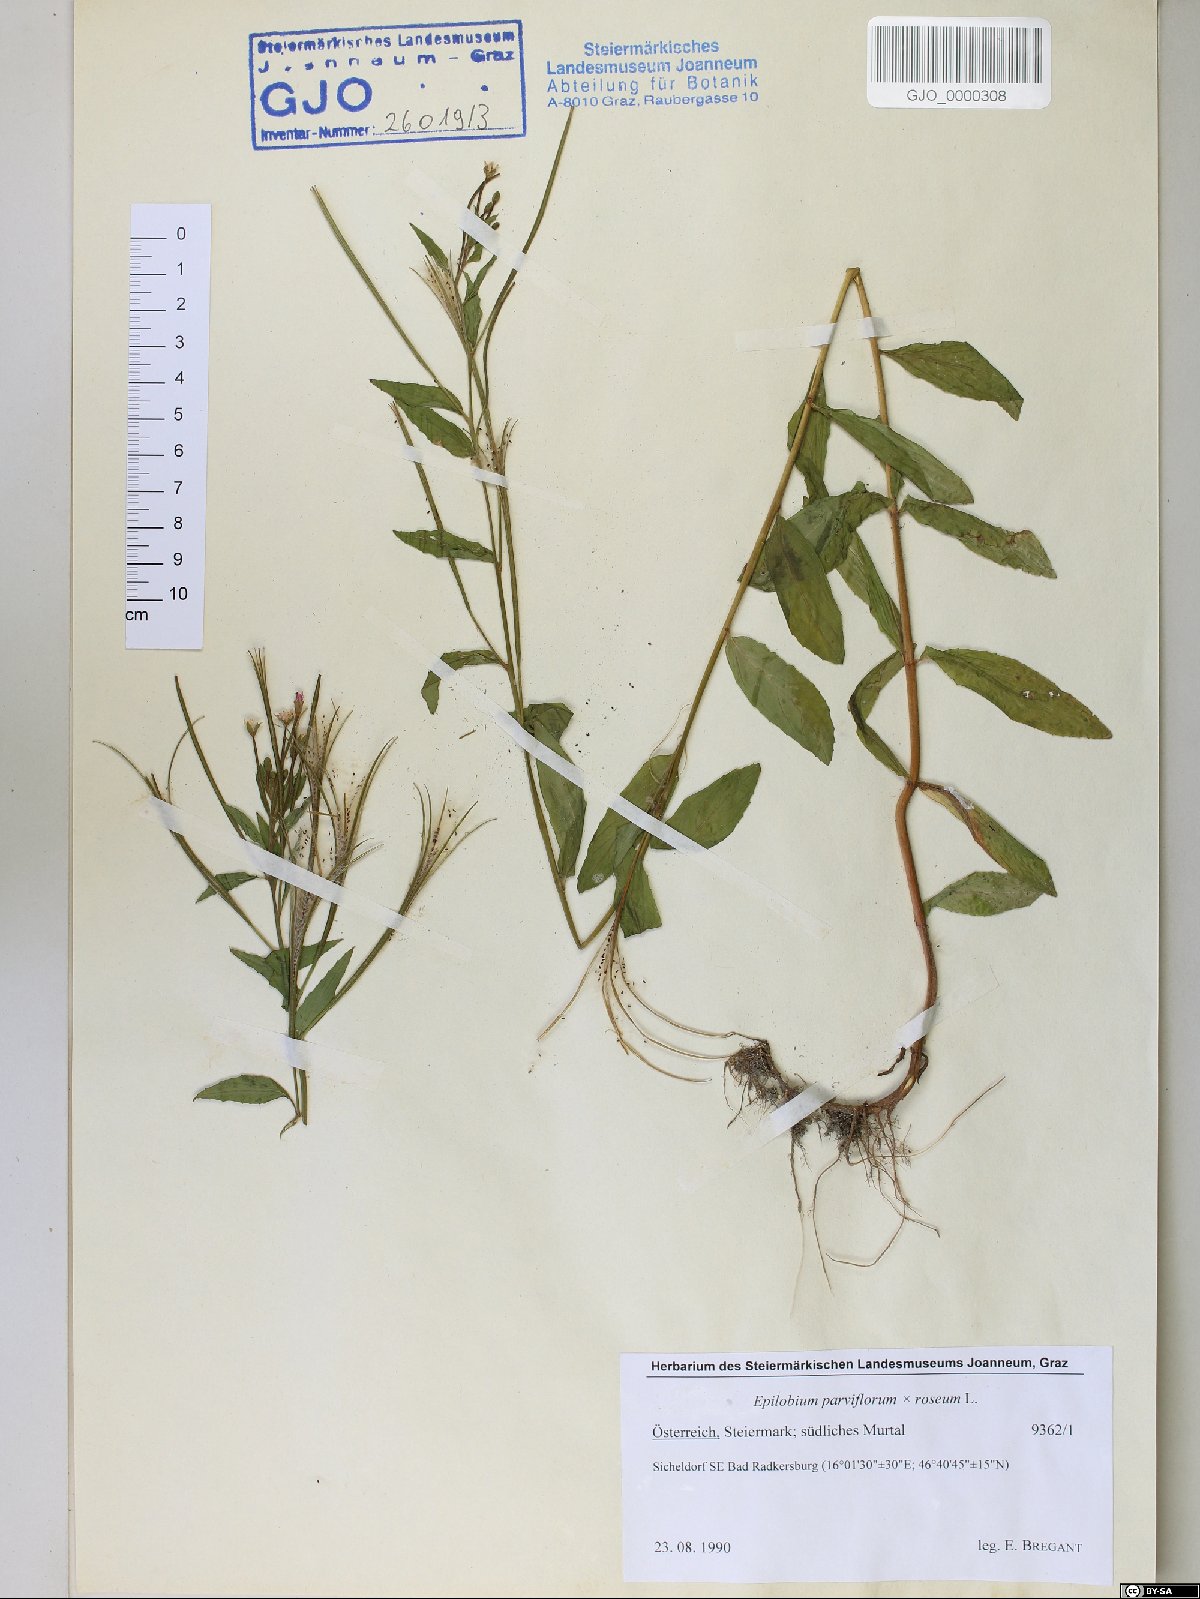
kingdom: Plantae
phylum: Tracheophyta
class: Magnoliopsida
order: Myrtales
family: Onagraceae
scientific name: Onagraceae
